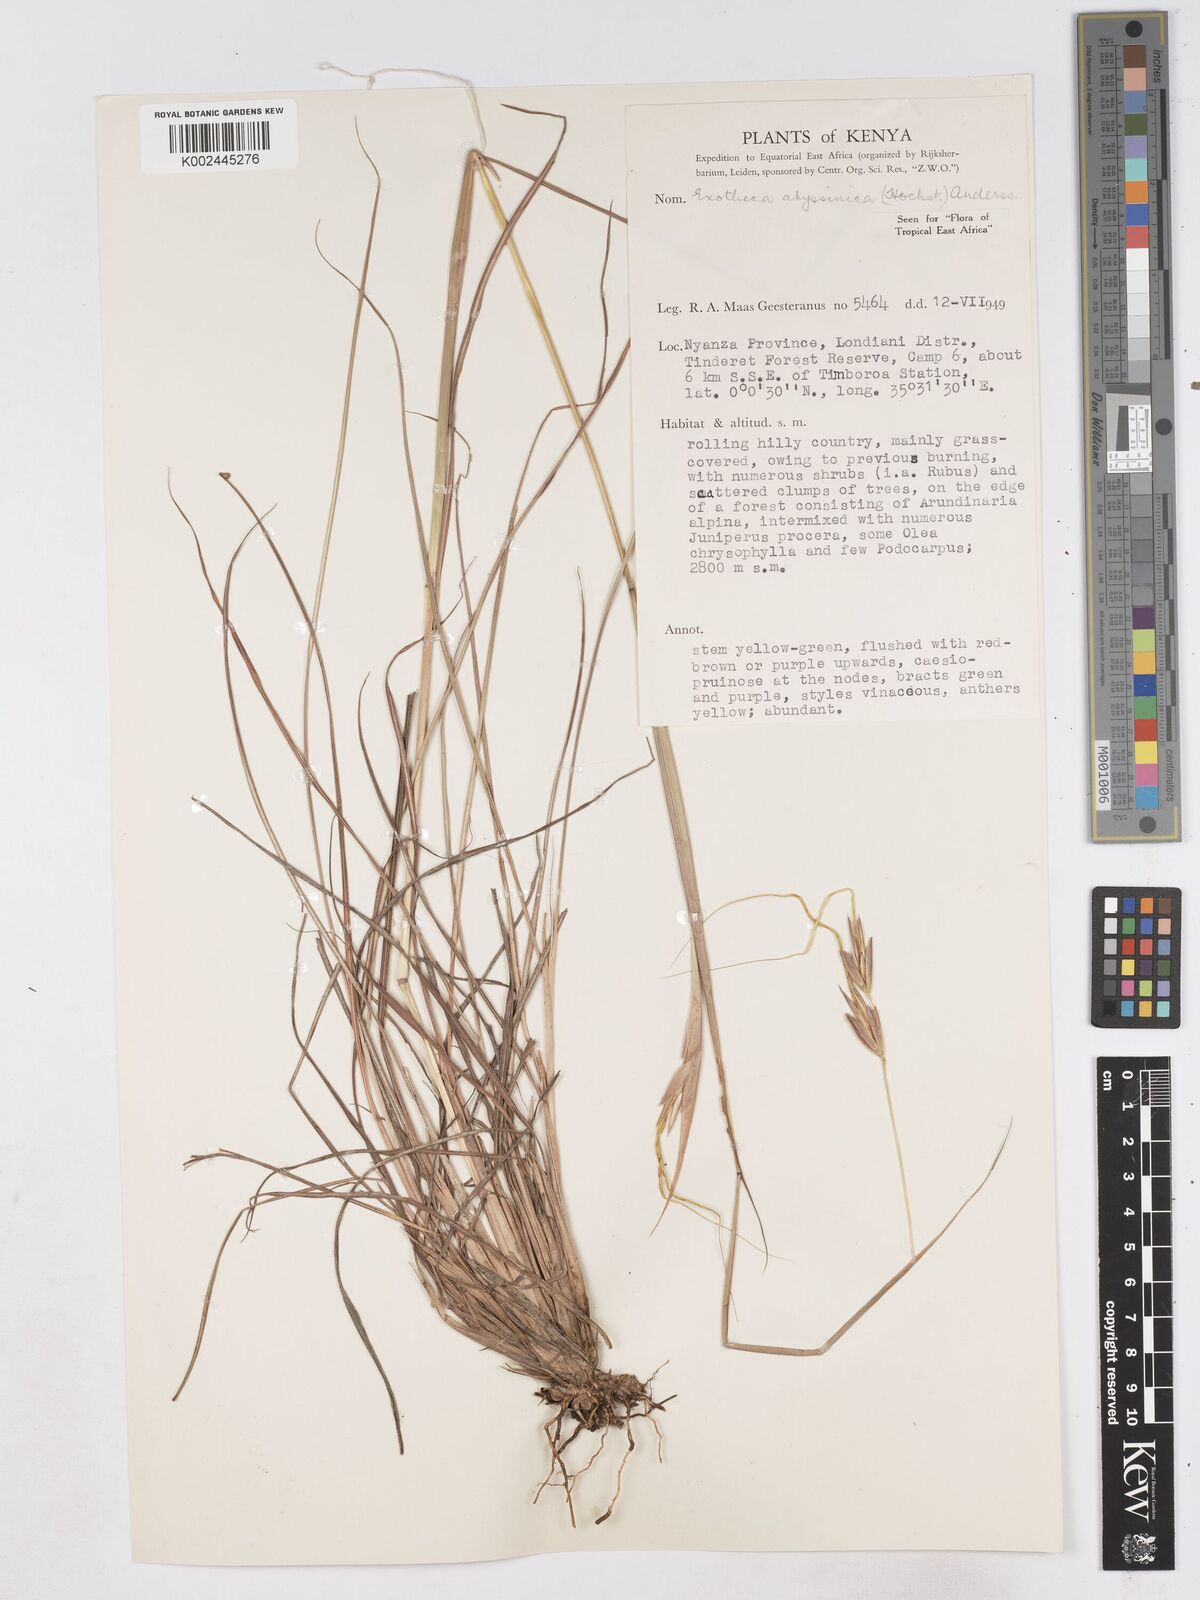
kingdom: Plantae
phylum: Tracheophyta
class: Liliopsida
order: Poales
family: Poaceae
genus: Exotheca
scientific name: Exotheca abyssinica
